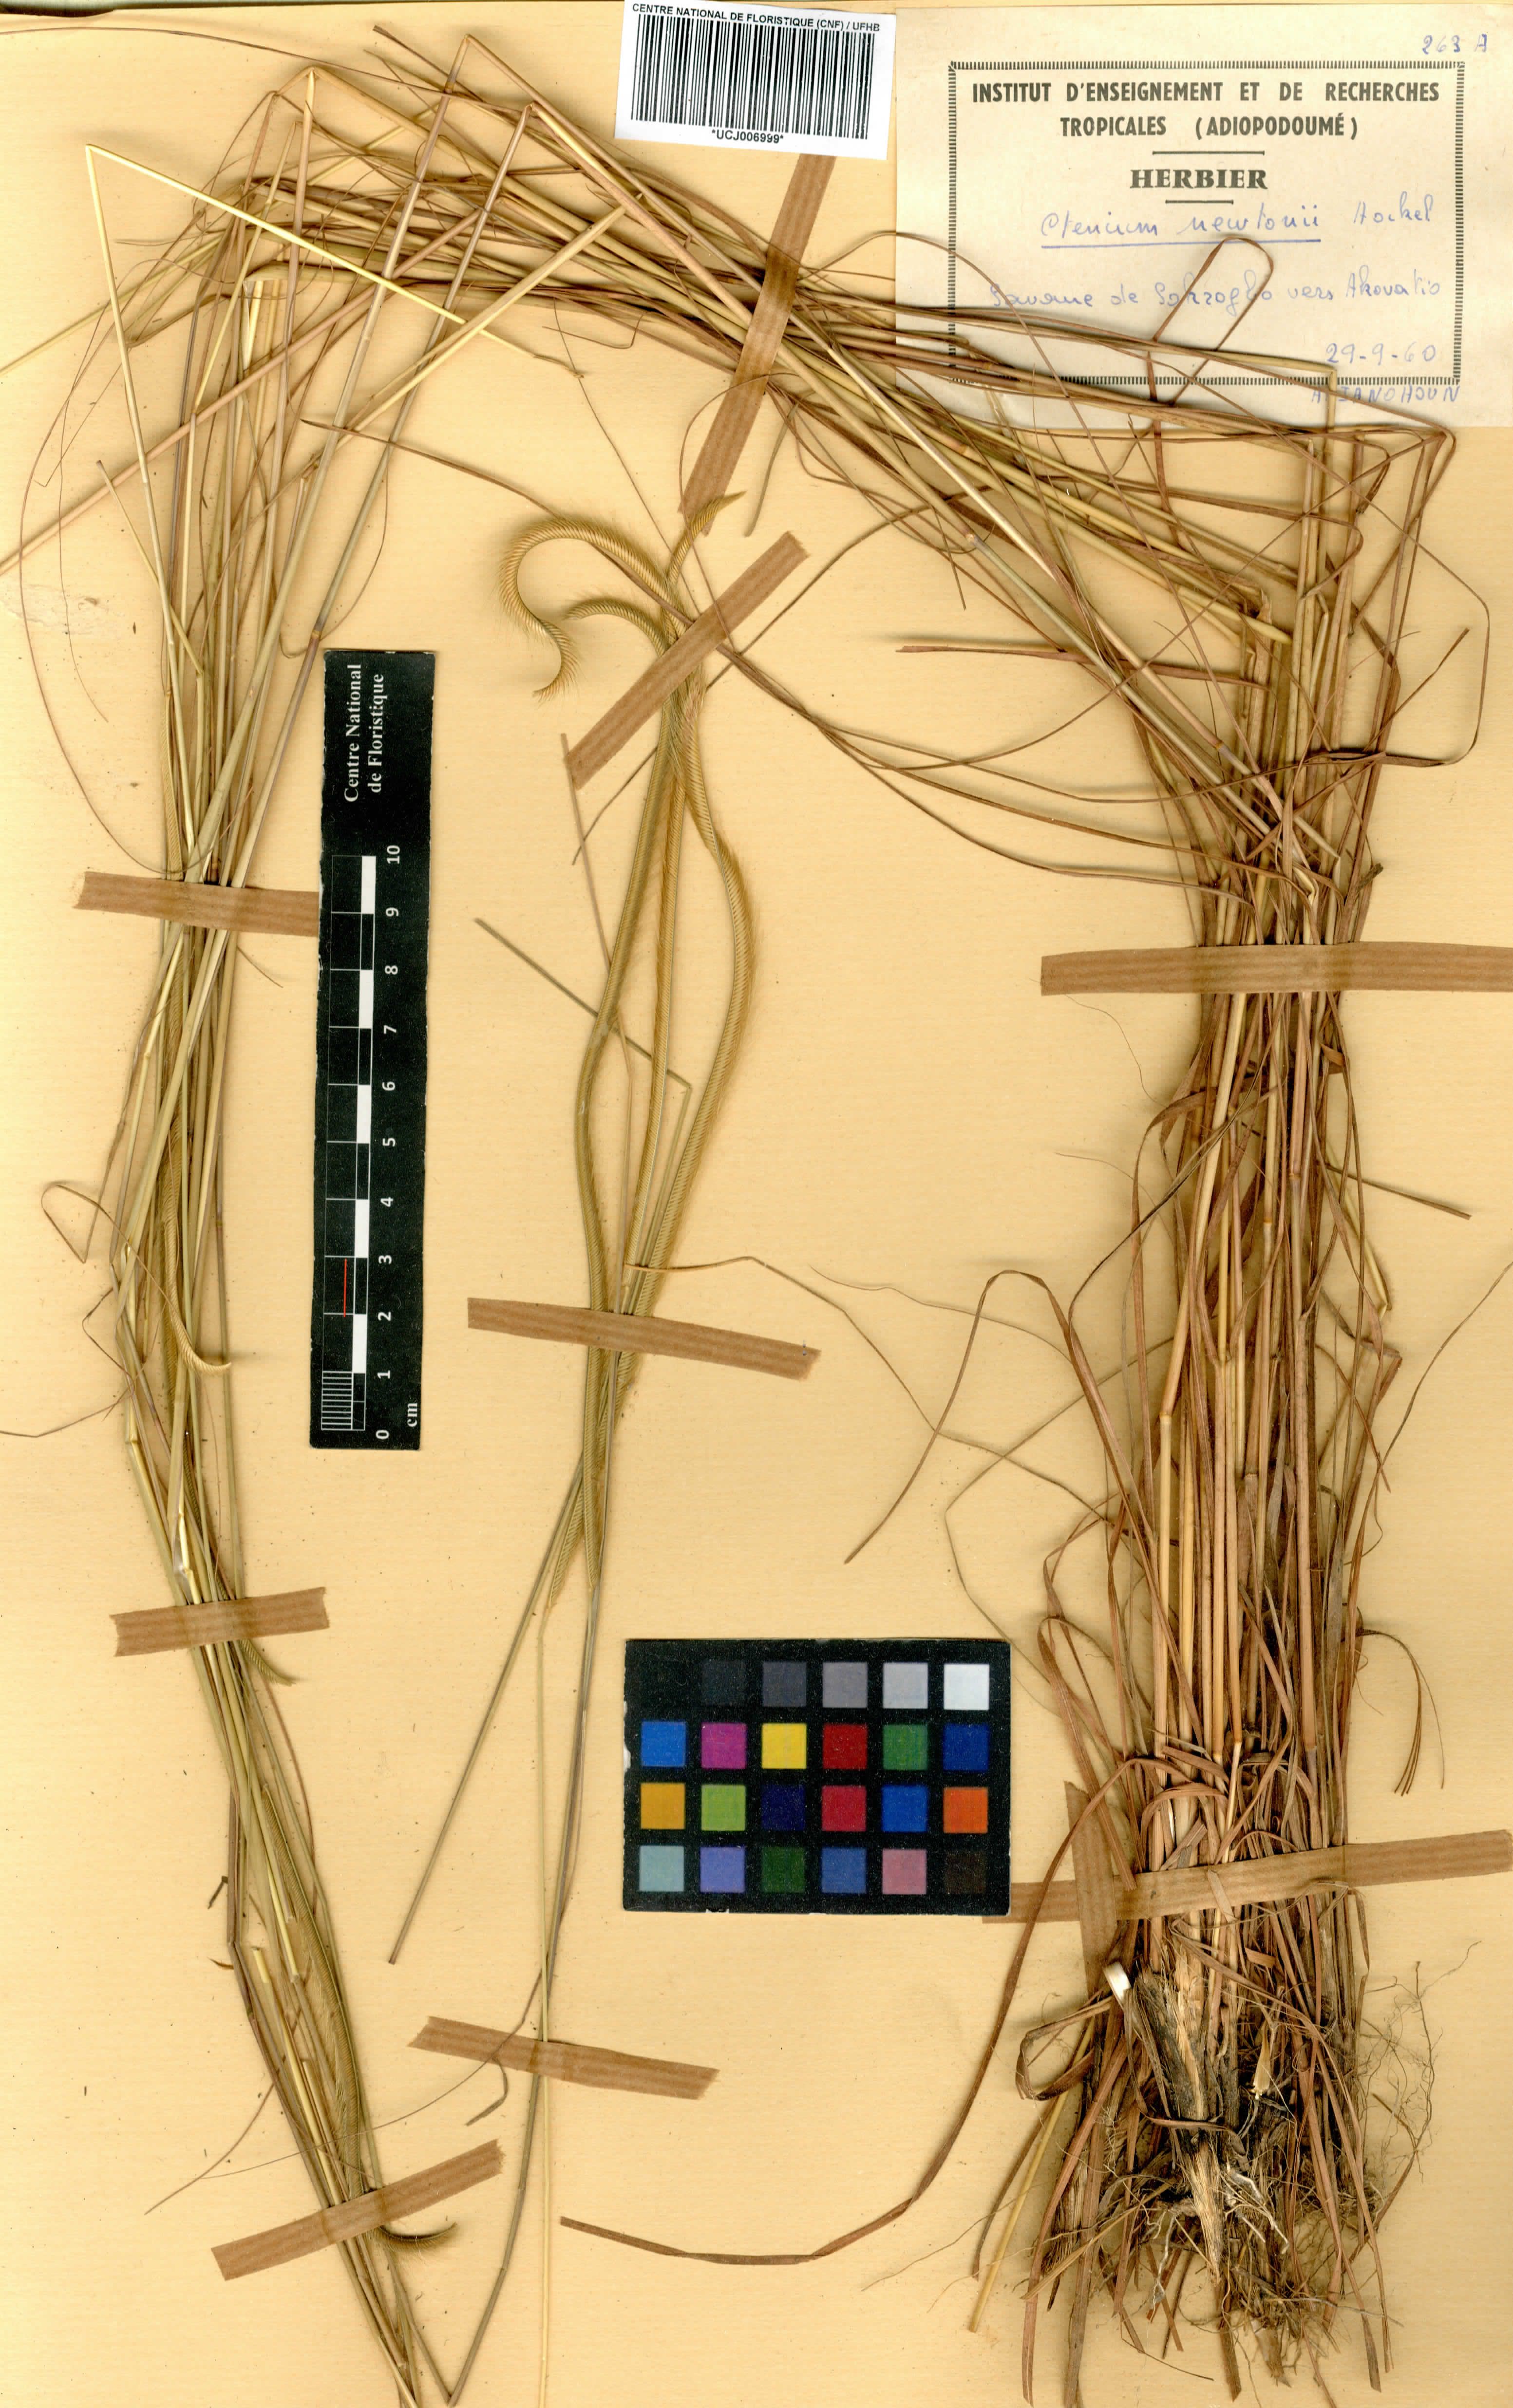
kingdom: Plantae
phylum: Tracheophyta
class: Liliopsida
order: Poales
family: Poaceae
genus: Ctenium
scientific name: Ctenium newtonii
